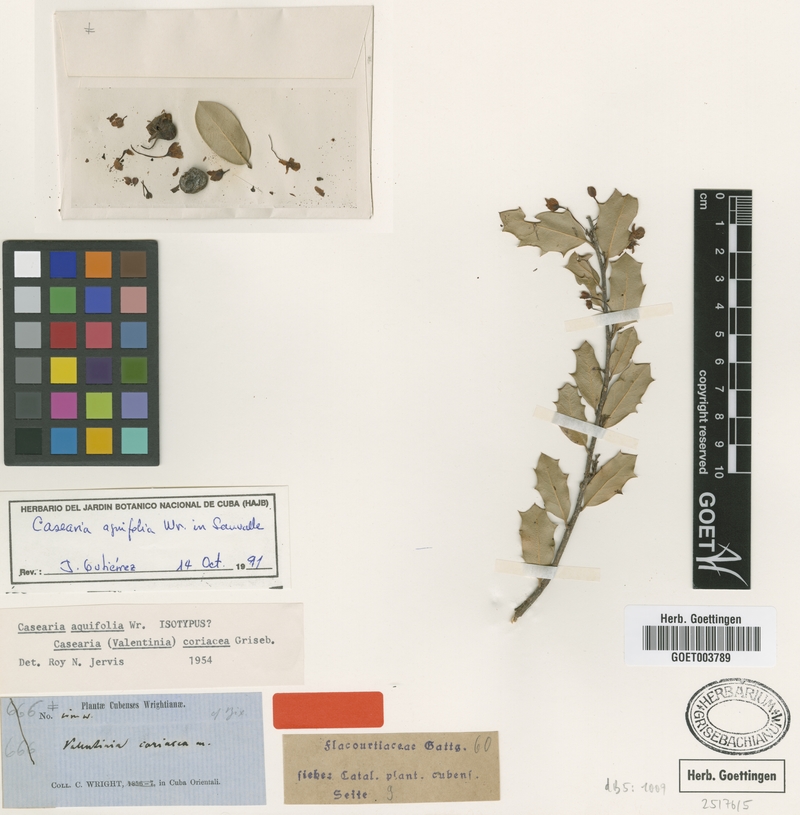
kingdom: Plantae
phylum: Tracheophyta
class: Magnoliopsida
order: Malpighiales
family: Salicaceae
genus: Casearia
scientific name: Casearia aquifolia
